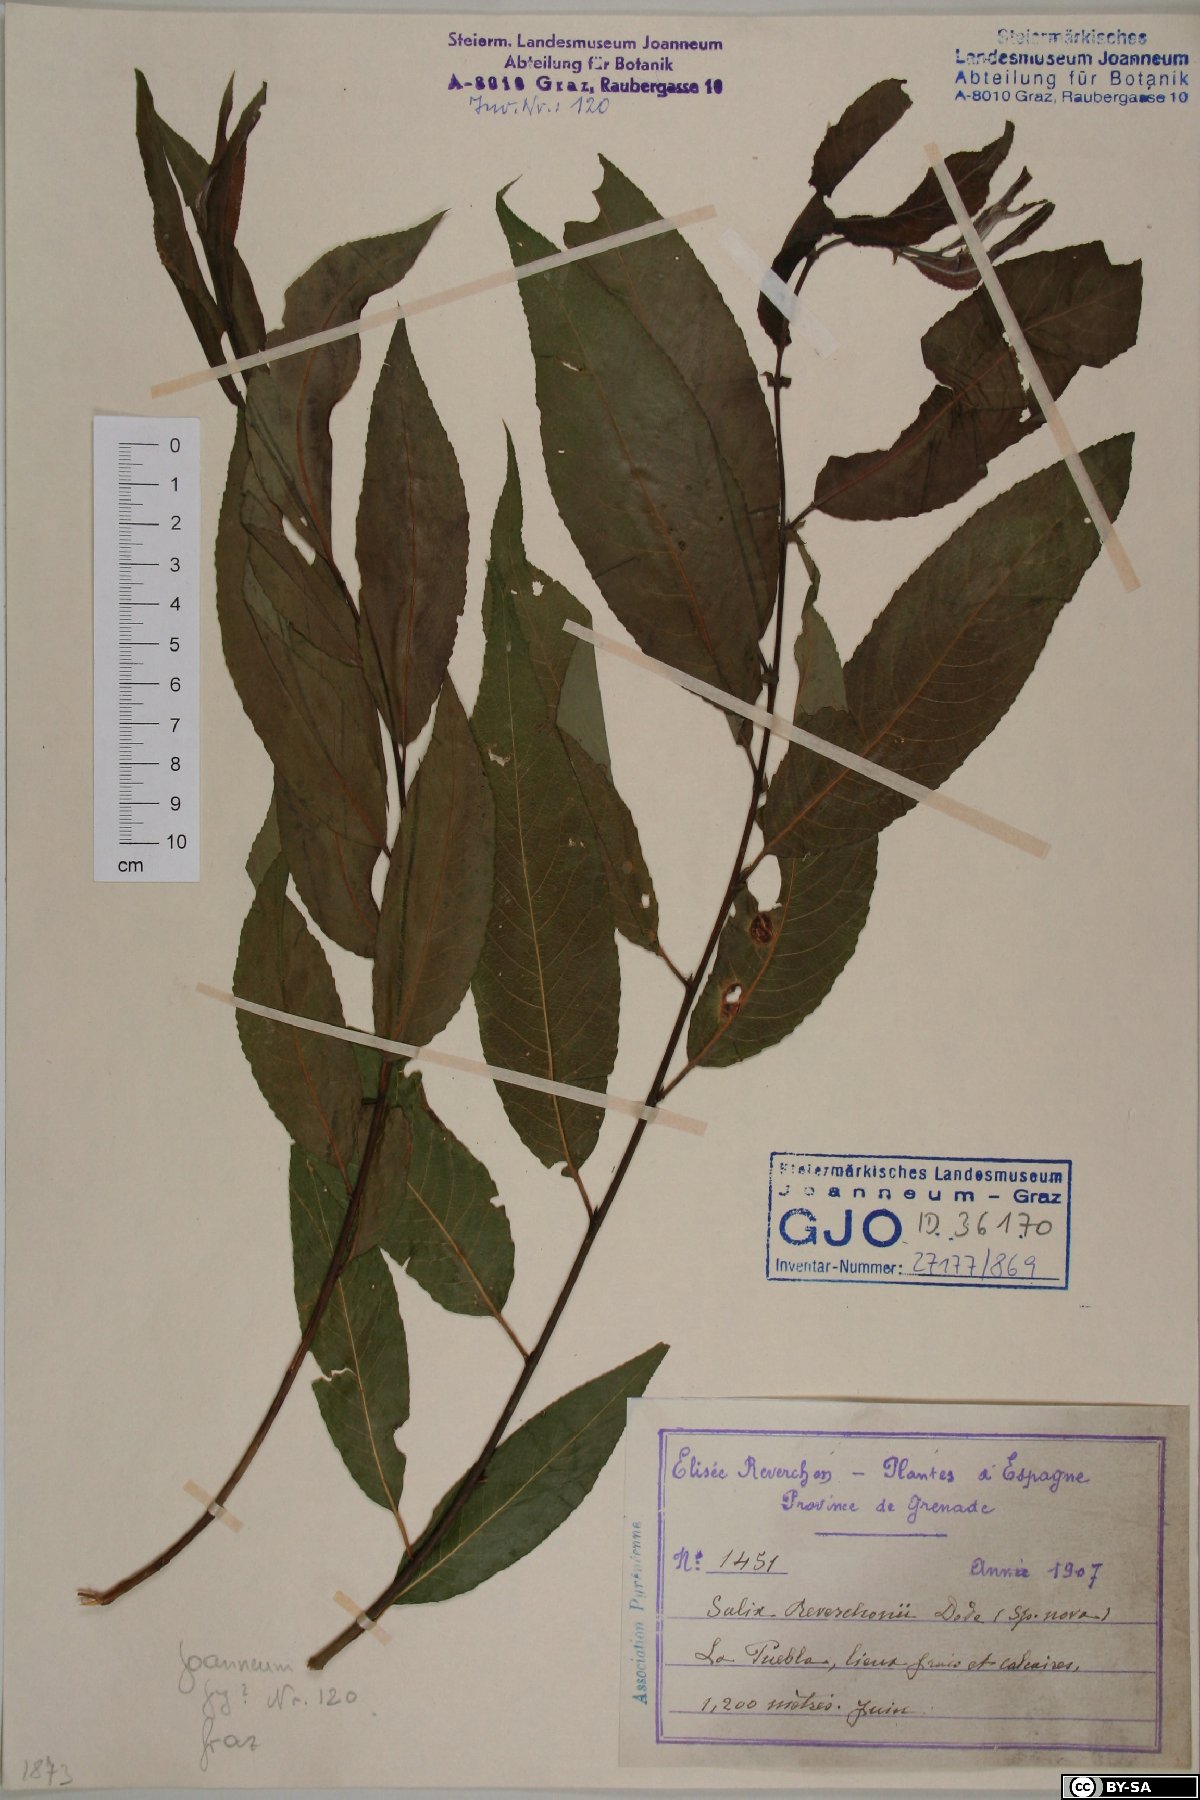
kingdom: Plantae
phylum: Tracheophyta
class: Magnoliopsida
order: Malpighiales
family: Salicaceae
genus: Salix
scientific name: Salix
